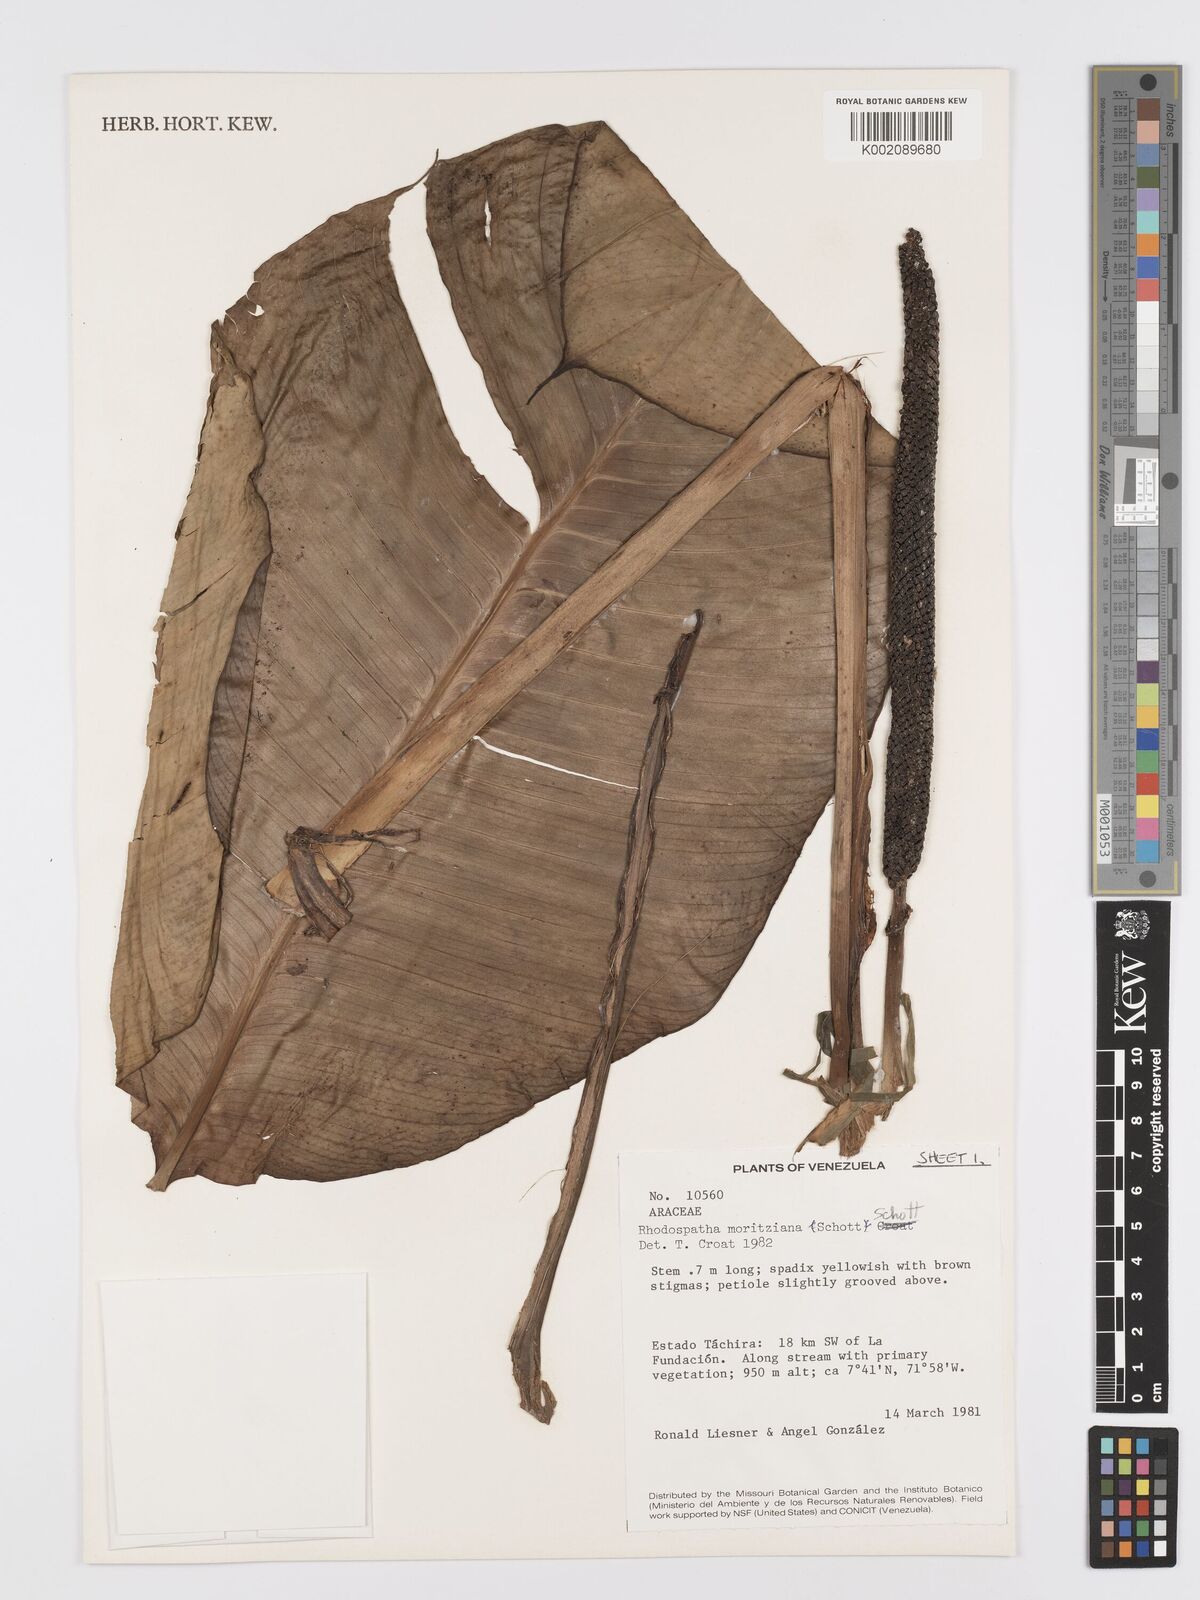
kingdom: Plantae
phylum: Tracheophyta
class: Liliopsida
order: Alismatales
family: Araceae
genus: Rhodospatha
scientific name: Rhodospatha moritziana
